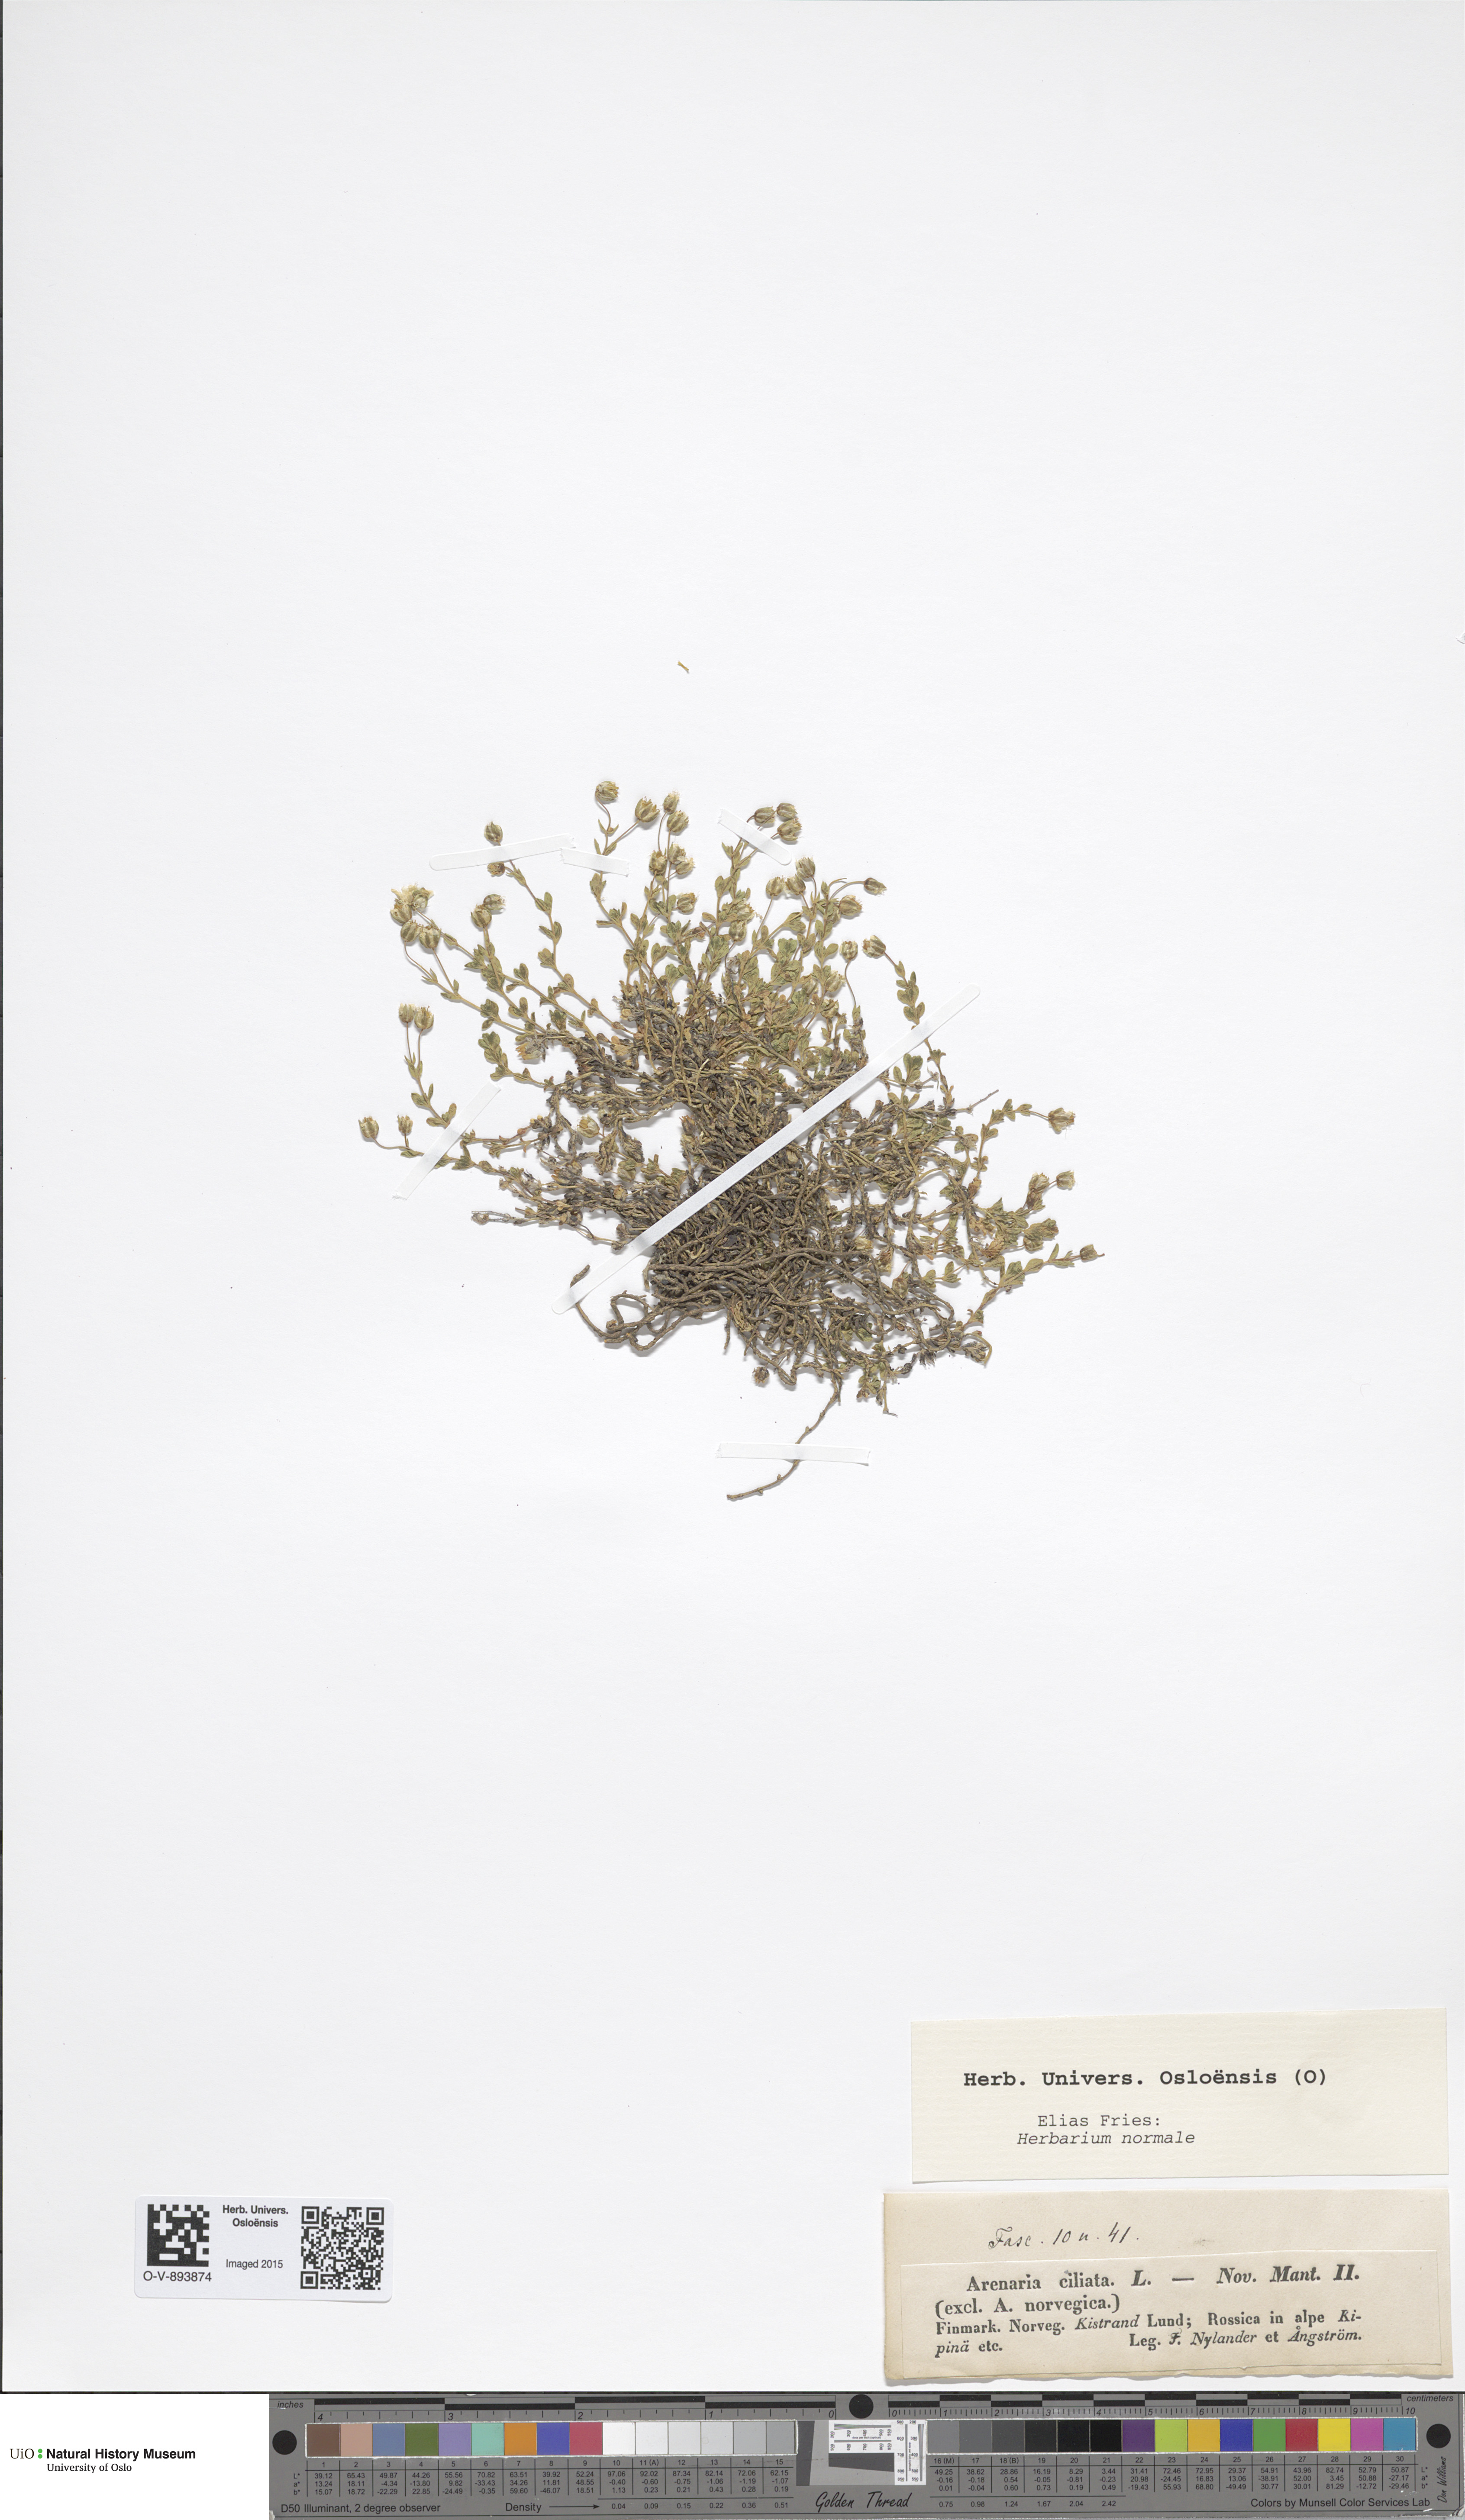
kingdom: Plantae
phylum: Tracheophyta
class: Magnoliopsida
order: Caryophyllales
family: Caryophyllaceae
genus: Arenaria
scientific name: Arenaria ciliata
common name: Fringed sandwort
